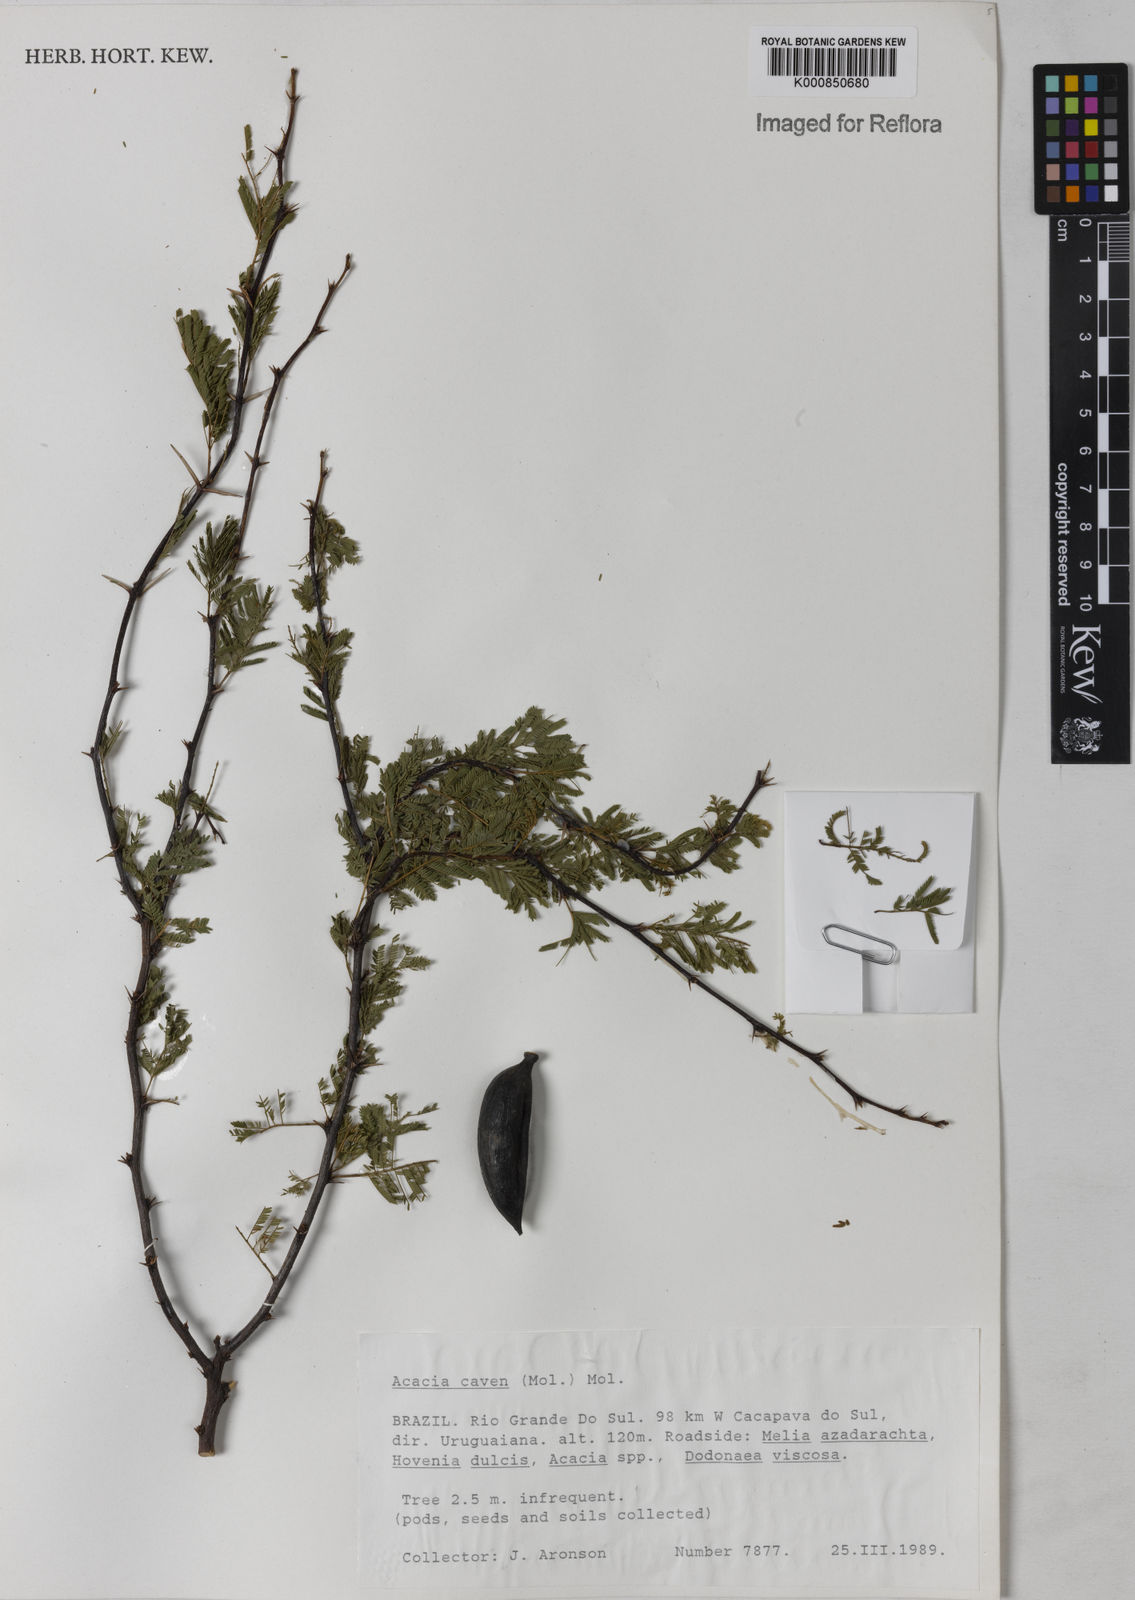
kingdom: Plantae
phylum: Tracheophyta
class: Magnoliopsida
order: Fabales
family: Fabaceae
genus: Vachellia
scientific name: Vachellia caven
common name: Roman cassie
